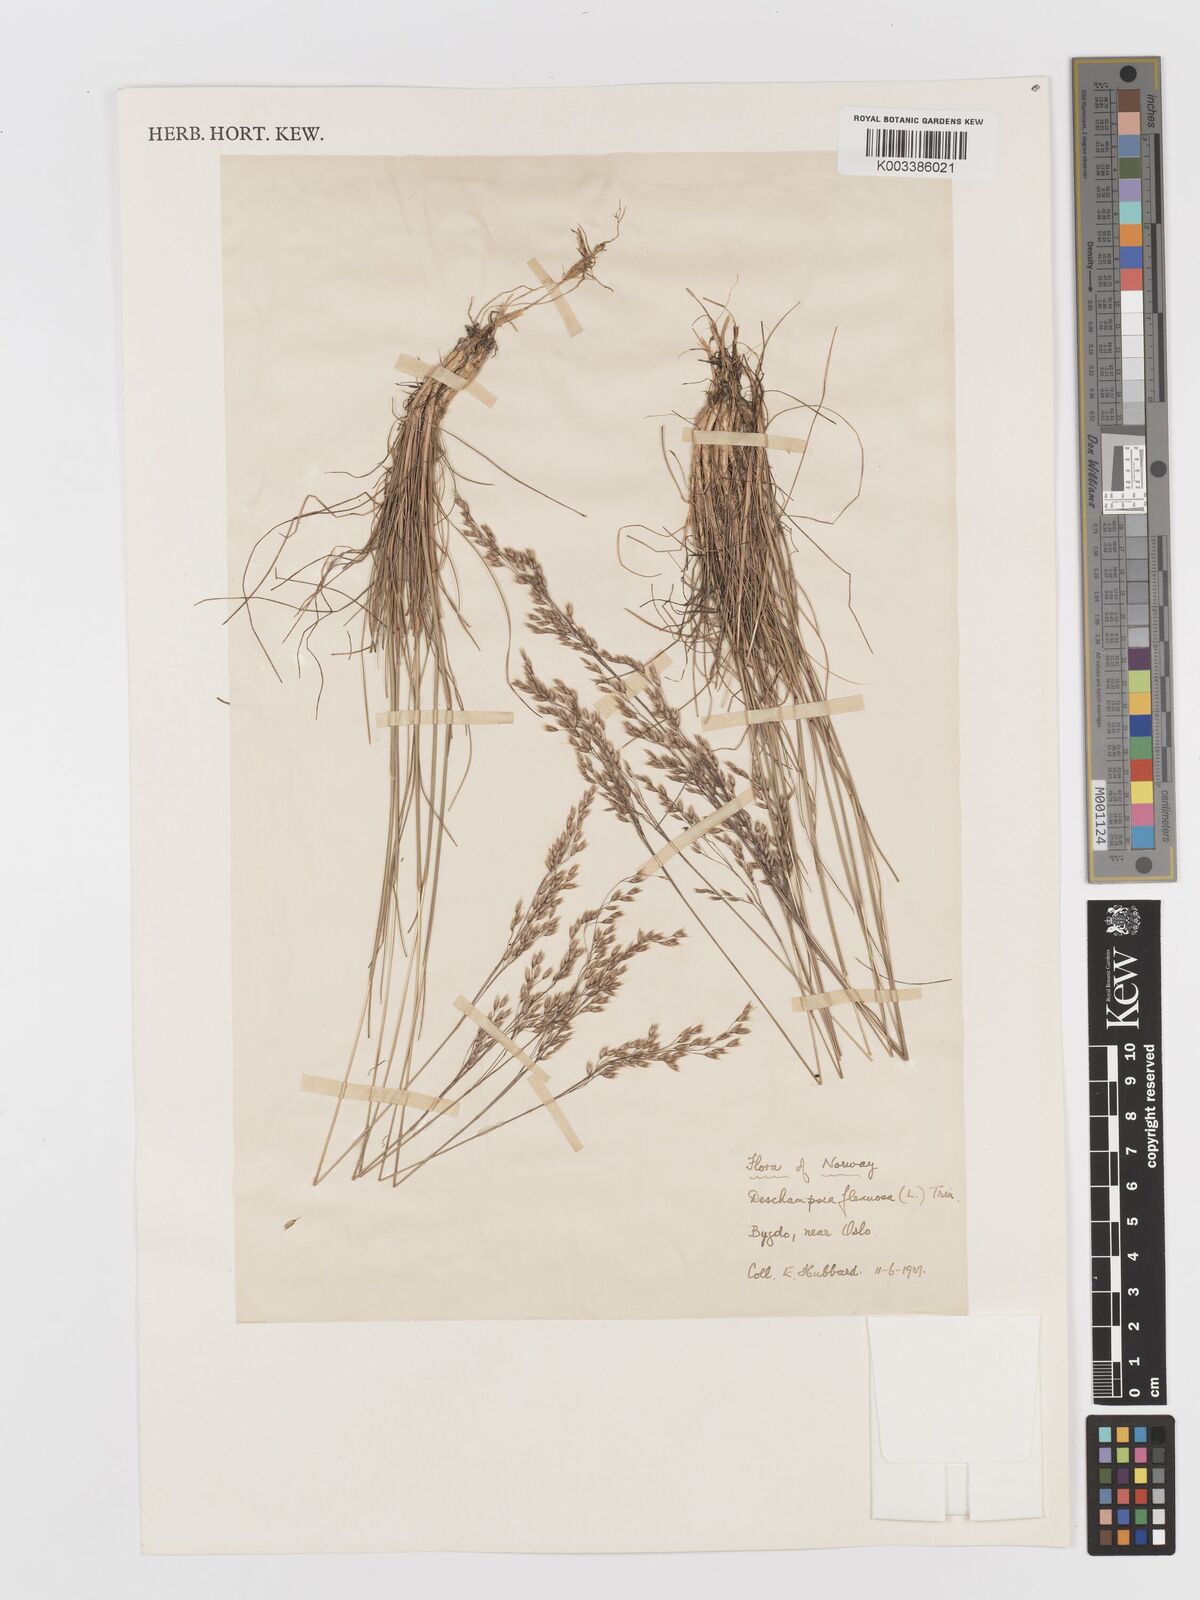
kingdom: Plantae
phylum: Tracheophyta
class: Liliopsida
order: Poales
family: Poaceae
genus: Avenella
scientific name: Avenella flexuosa
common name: Wavy hairgrass
